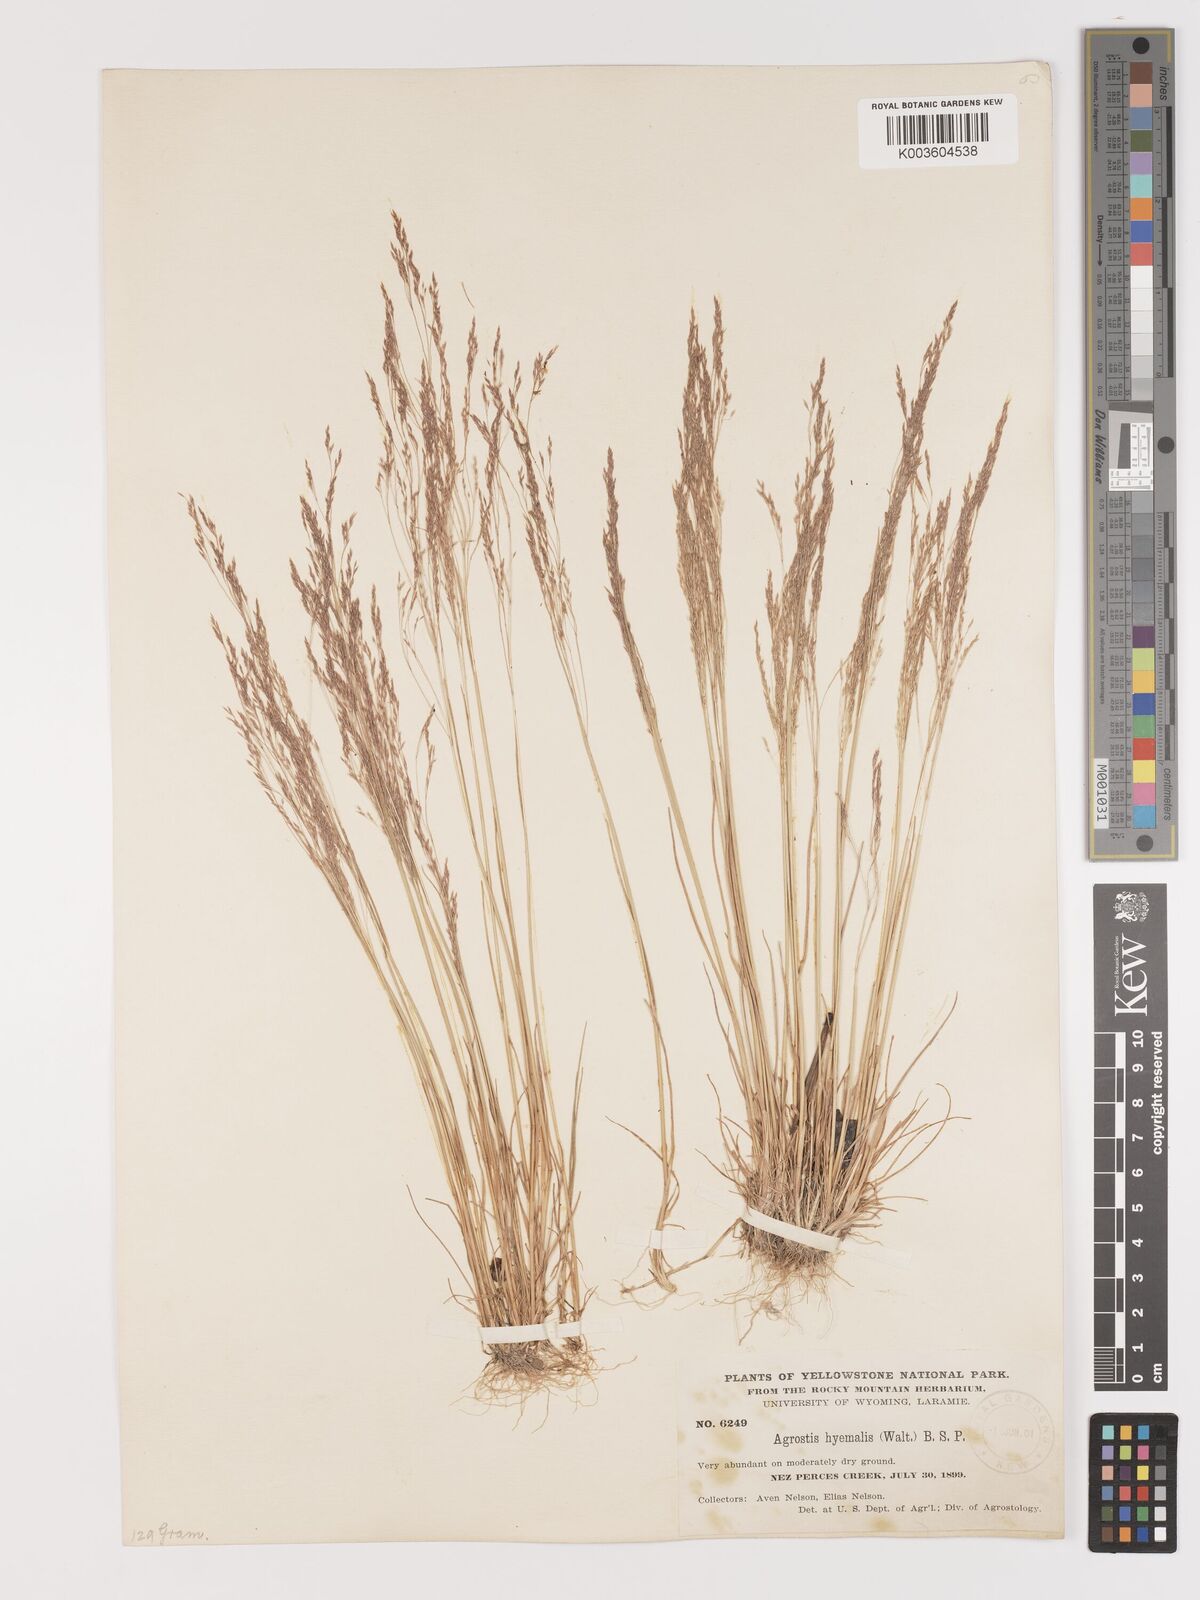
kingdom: Plantae
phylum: Tracheophyta
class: Liliopsida
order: Poales
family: Poaceae
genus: Agrostis
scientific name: Agrostis hyemalis
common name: Small bent
